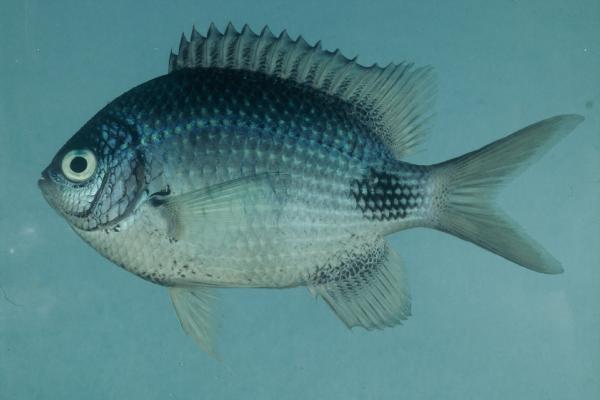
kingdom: Animalia
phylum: Chordata
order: Perciformes
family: Pomacentridae
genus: Abudefduf
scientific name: Abudefduf sparoides
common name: False-eye sergeant
